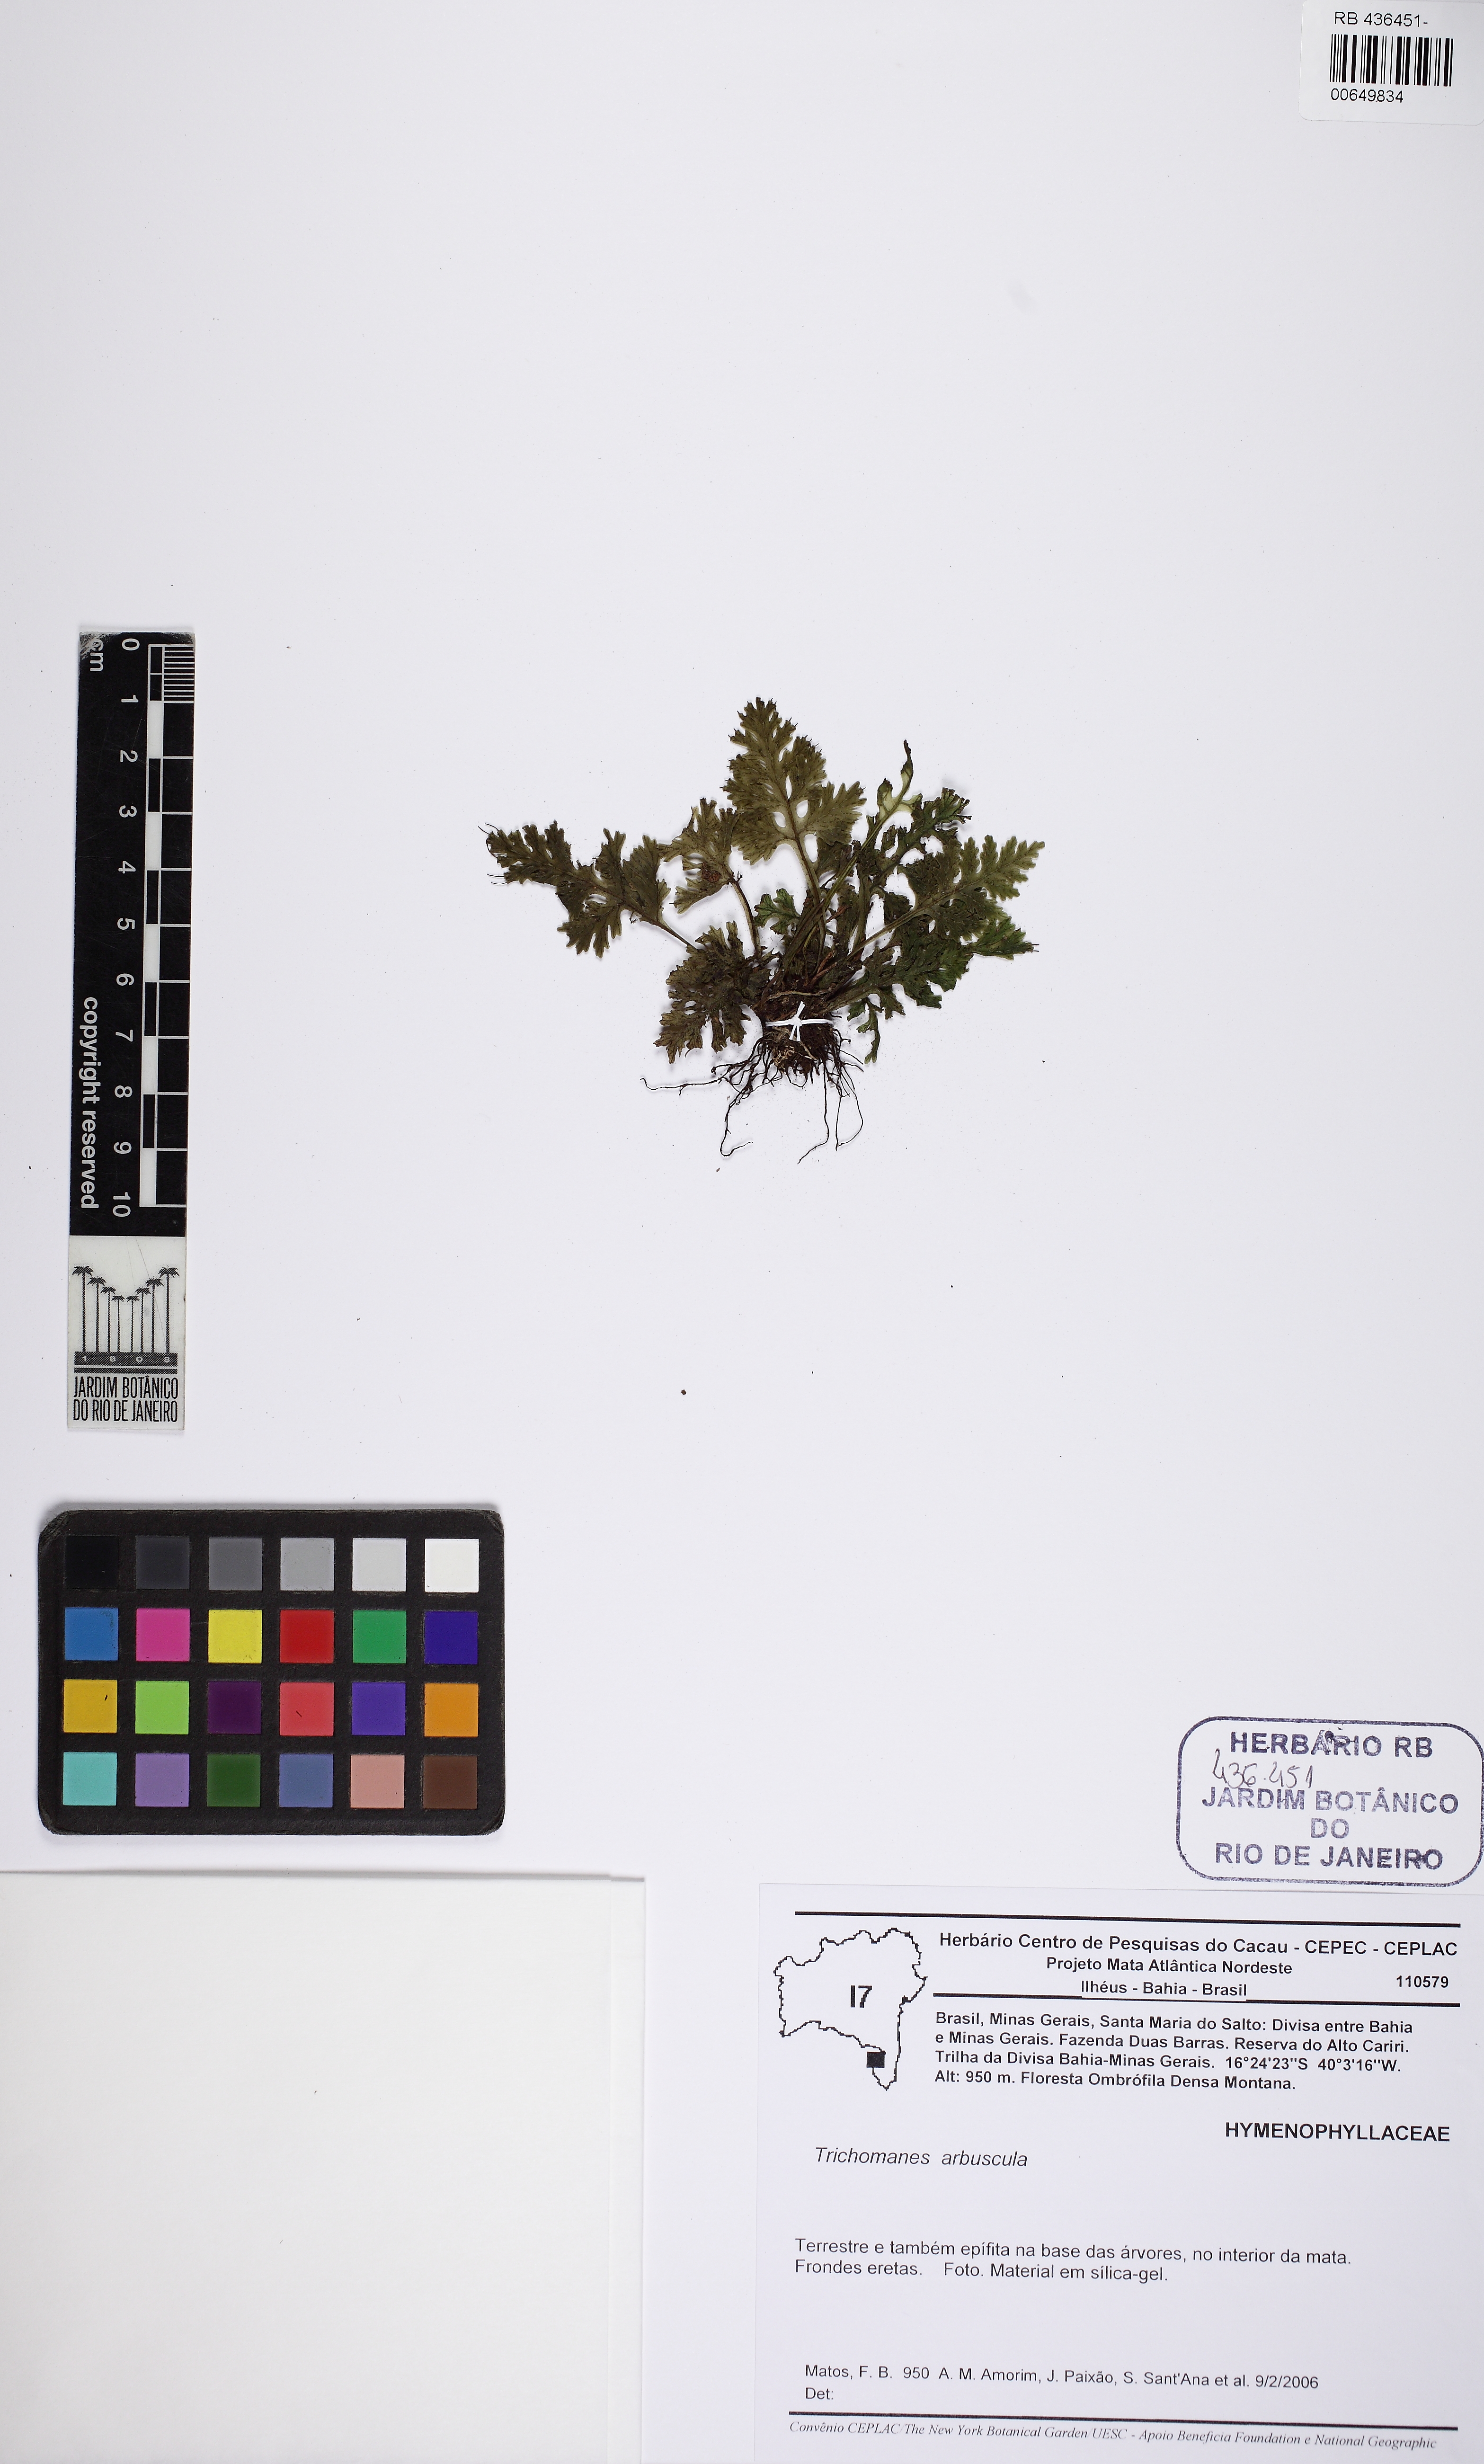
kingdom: Plantae
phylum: Tracheophyta
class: Polypodiopsida
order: Hymenophyllales
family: Hymenophyllaceae
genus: Trichomanes
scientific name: Trichomanes arbuscula
